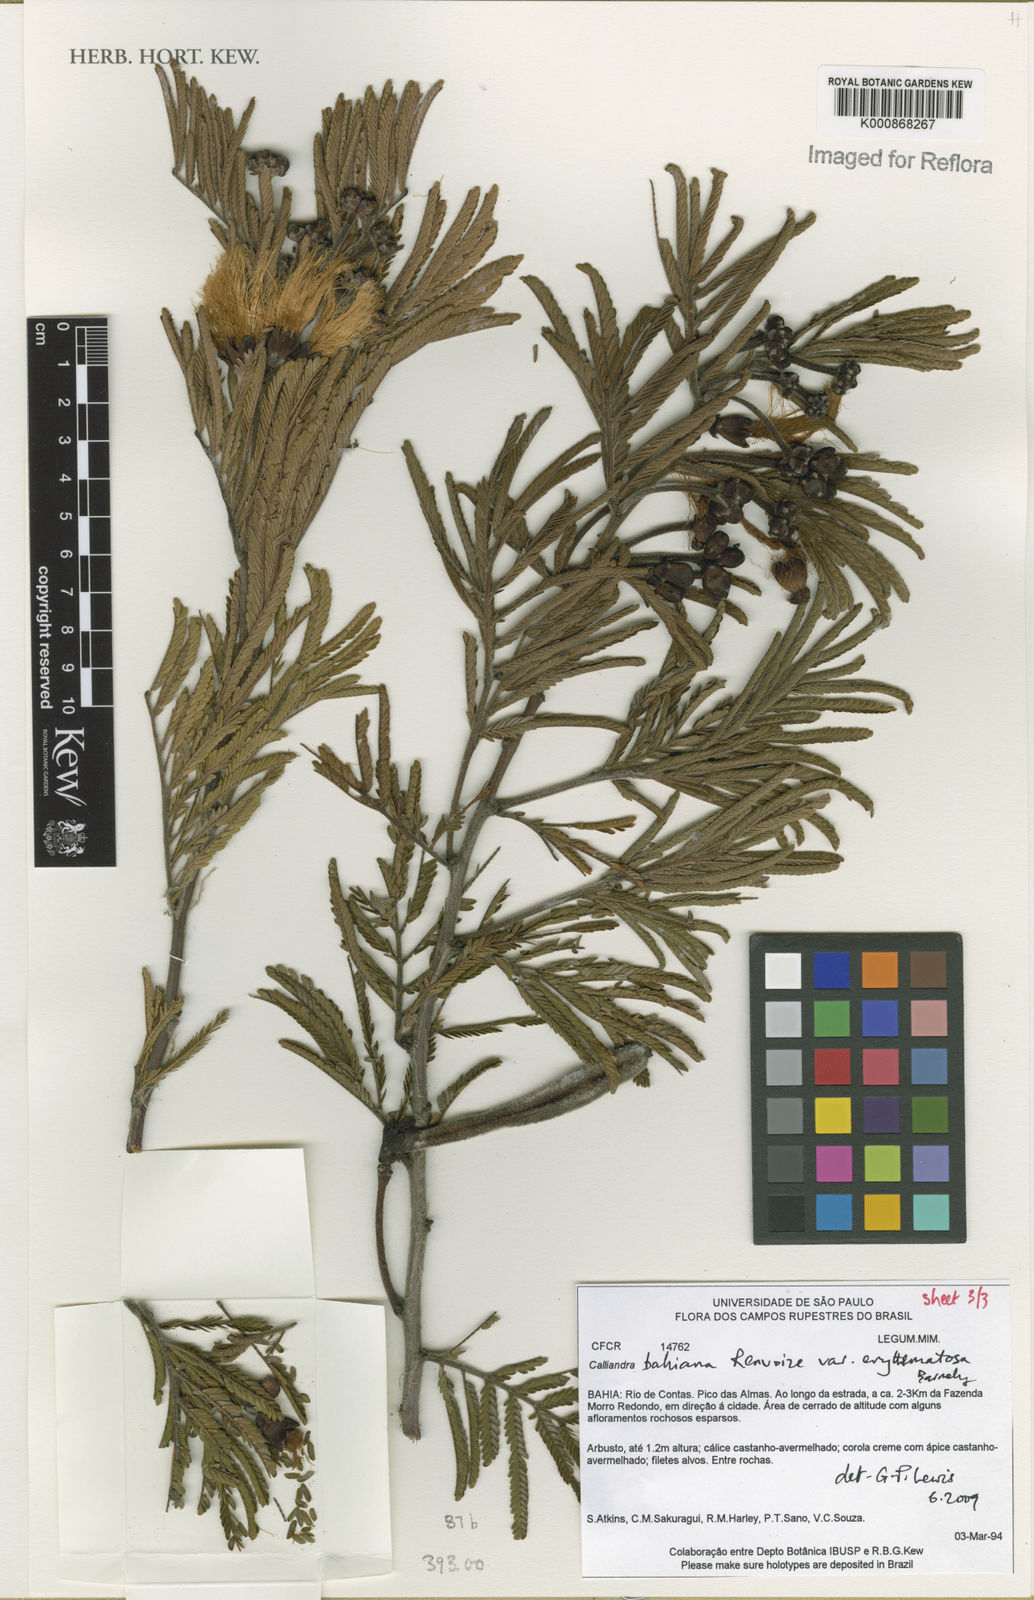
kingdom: Plantae
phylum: Tracheophyta
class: Magnoliopsida
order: Fabales
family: Fabaceae
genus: Calliandra
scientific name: Calliandra bahiana
